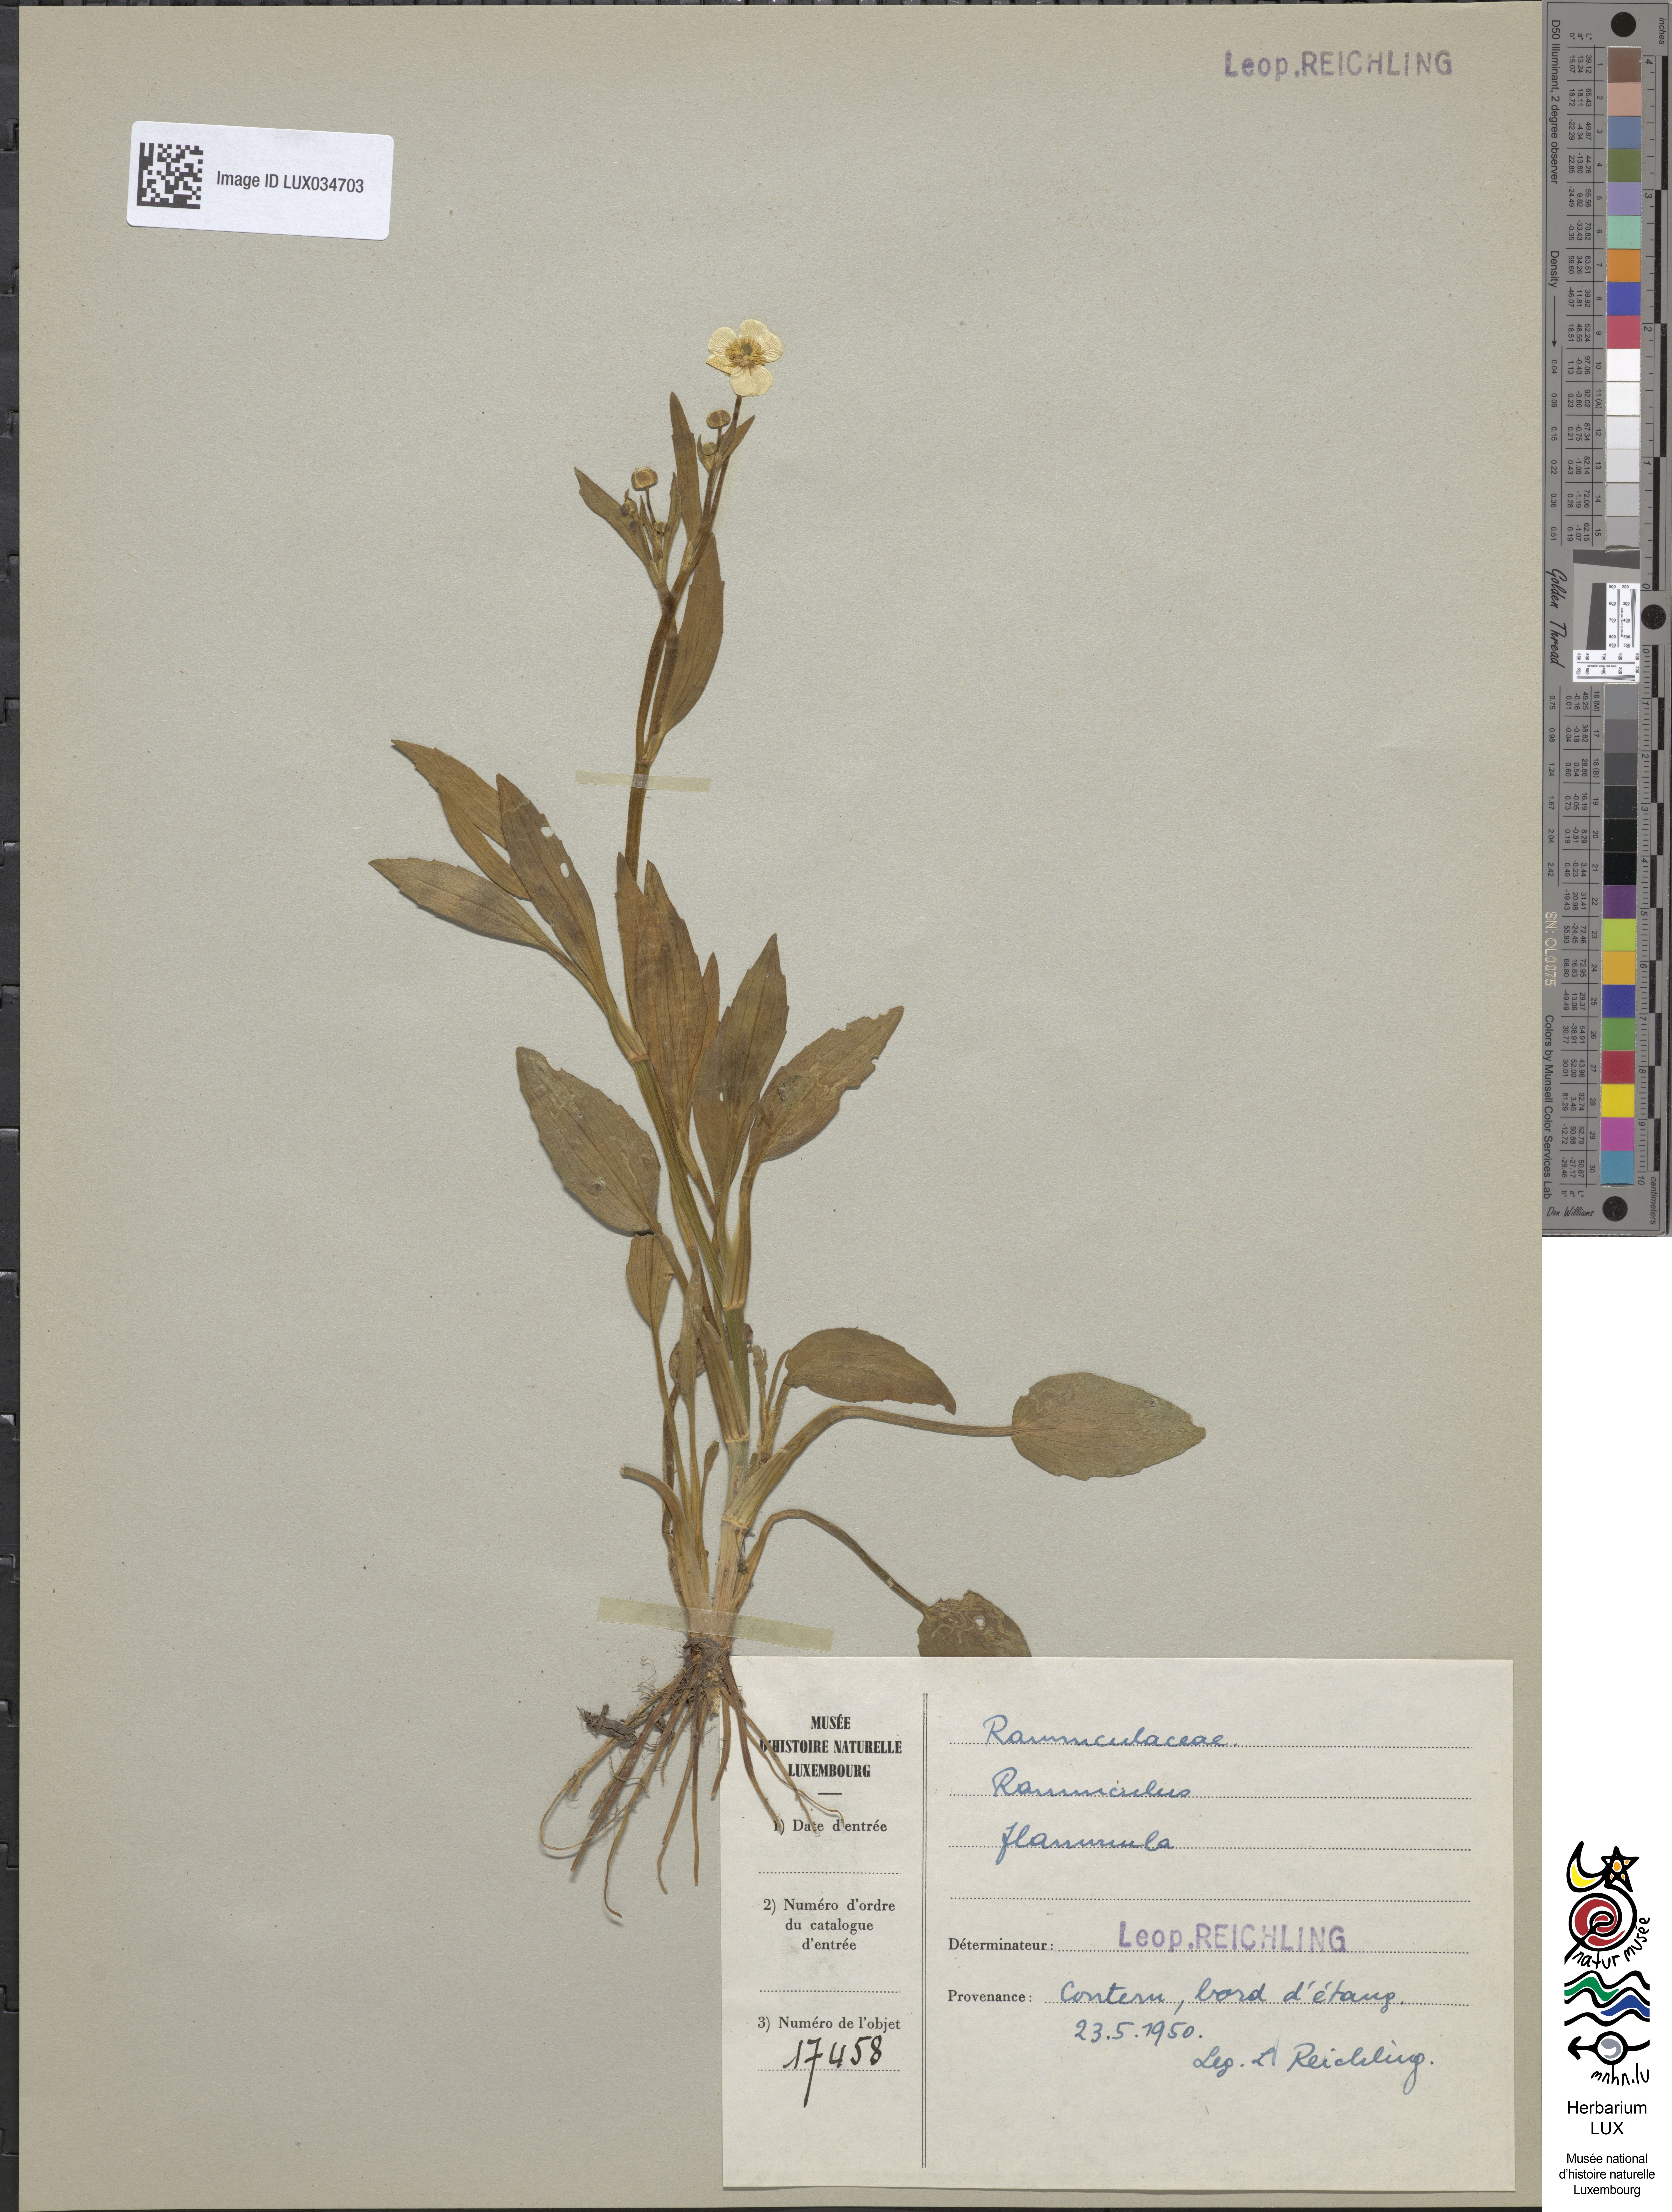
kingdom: Plantae
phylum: Tracheophyta
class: Magnoliopsida
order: Ranunculales
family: Ranunculaceae
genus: Ranunculus
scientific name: Ranunculus flammula
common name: Lesser spearwort
